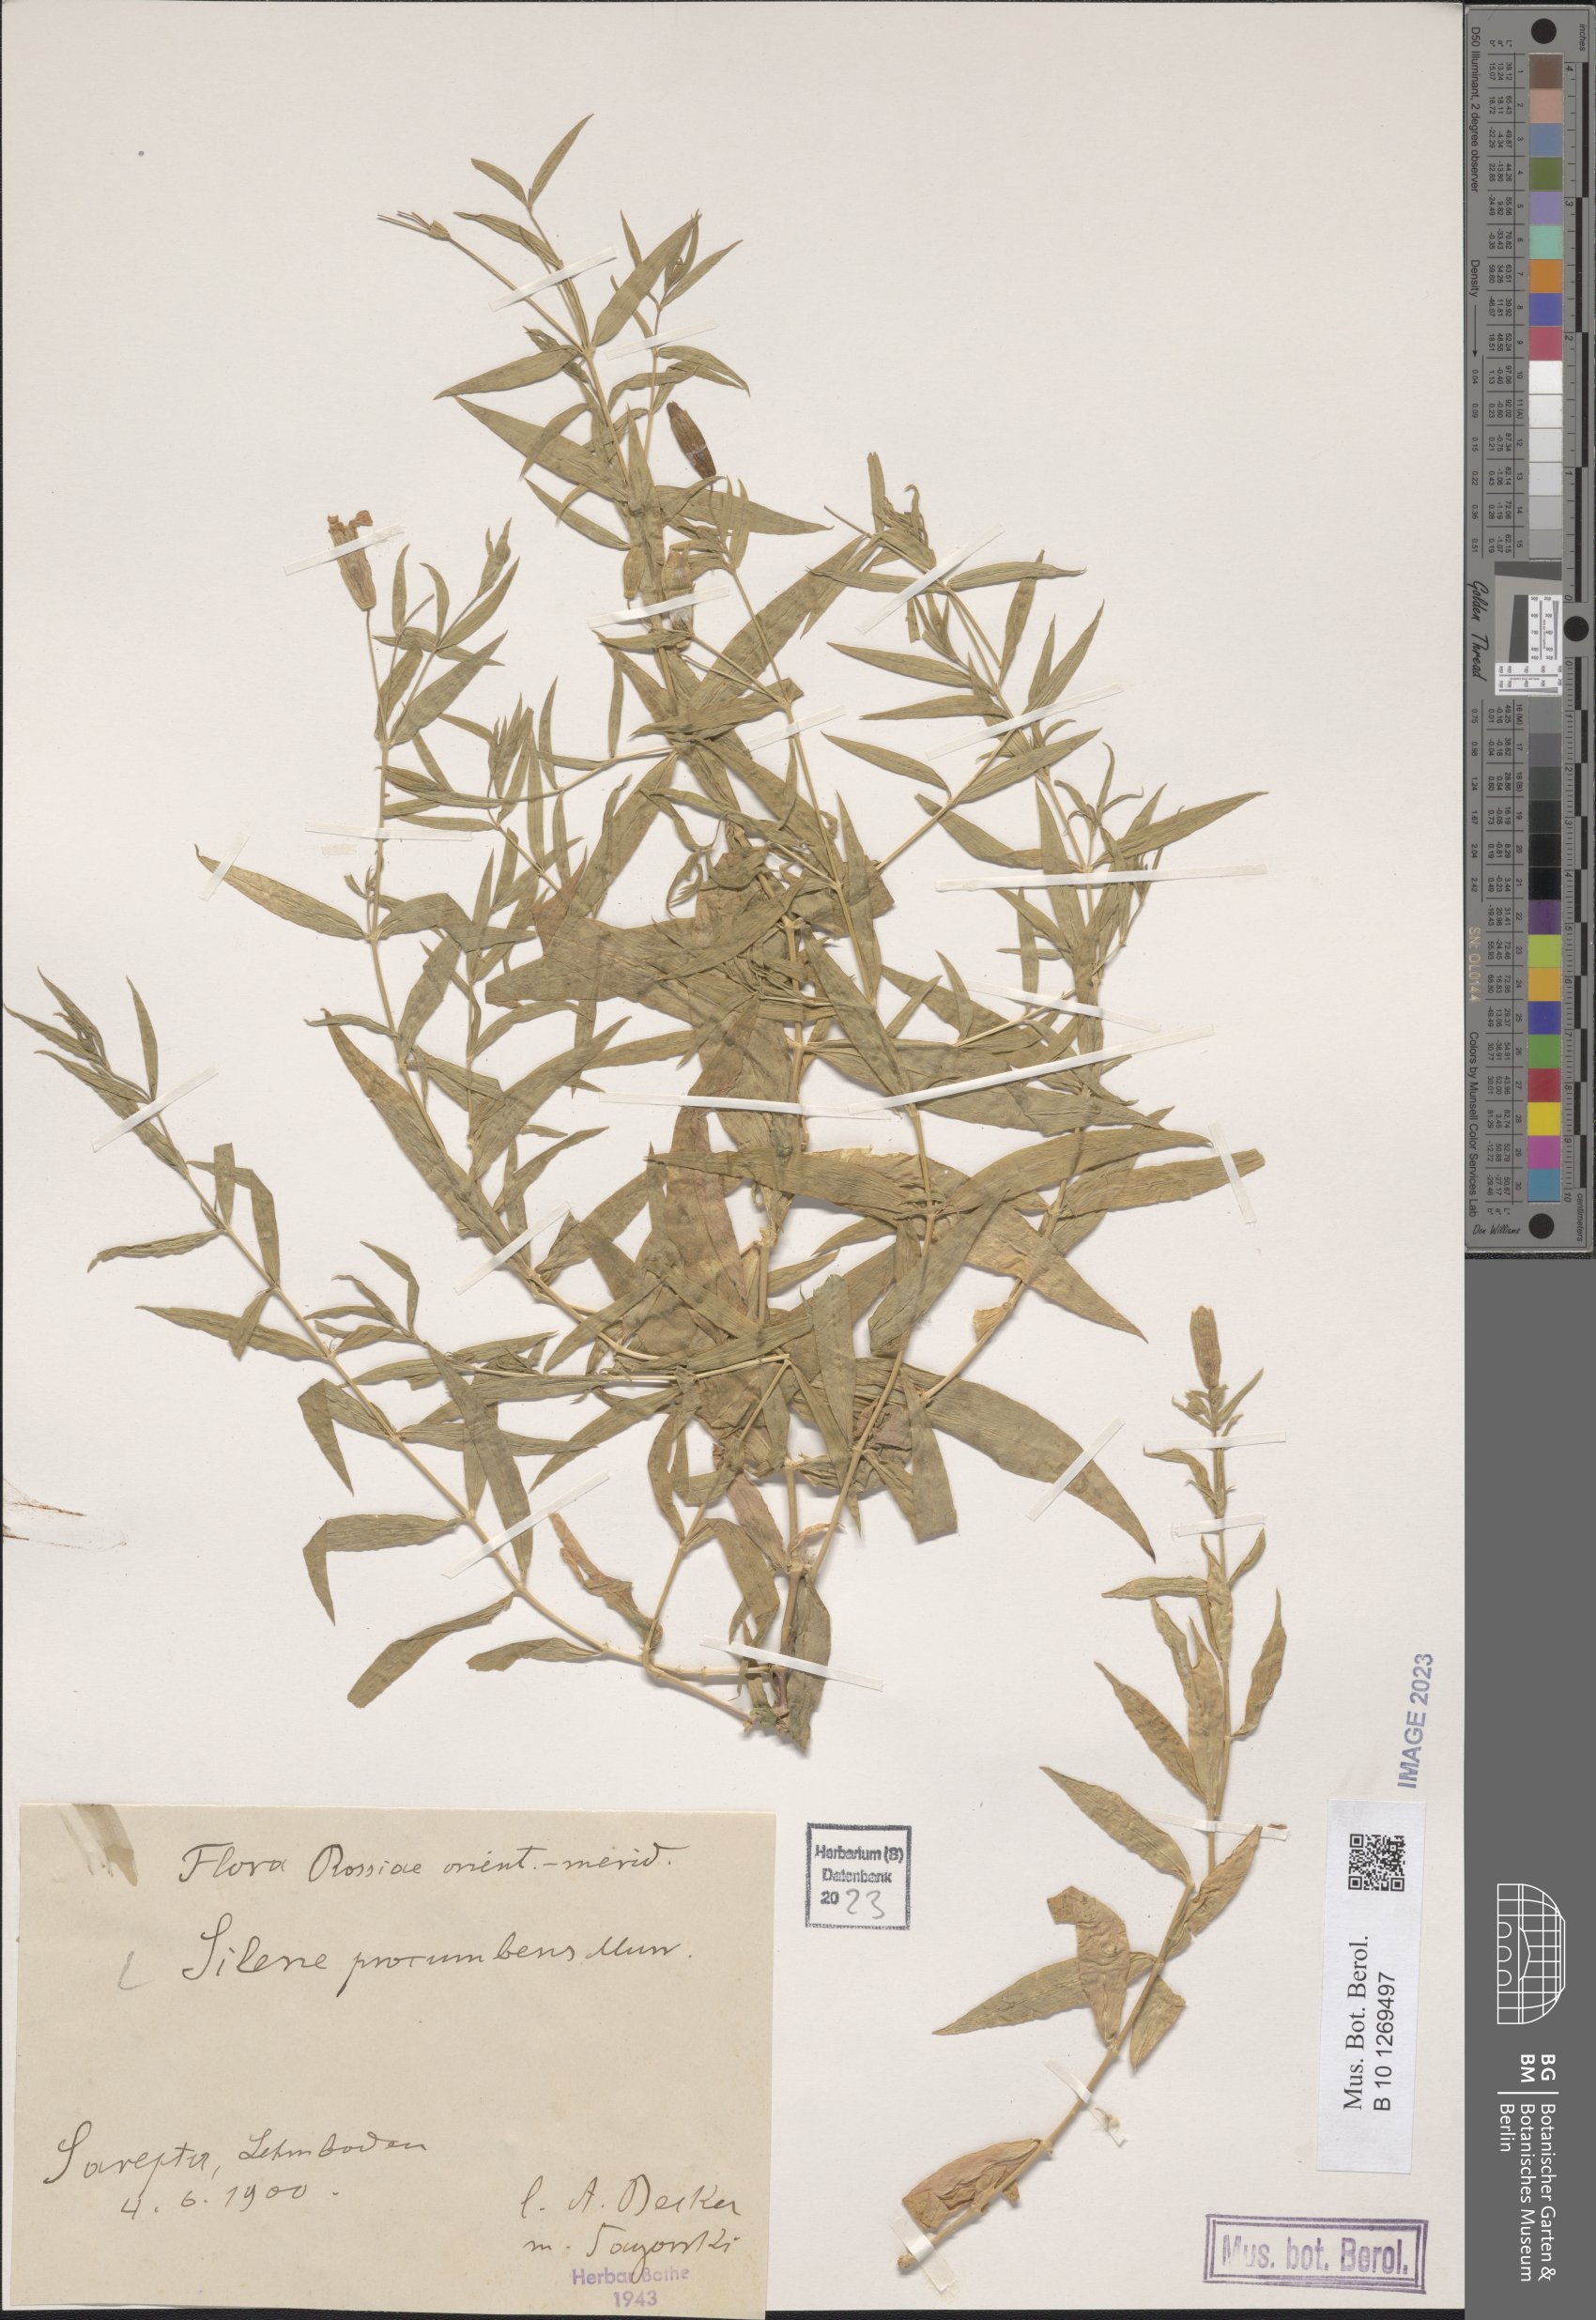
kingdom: Plantae
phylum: Tracheophyta
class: Magnoliopsida
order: Caryophyllales
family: Caryophyllaceae
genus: Silene
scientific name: Silene procumbens
